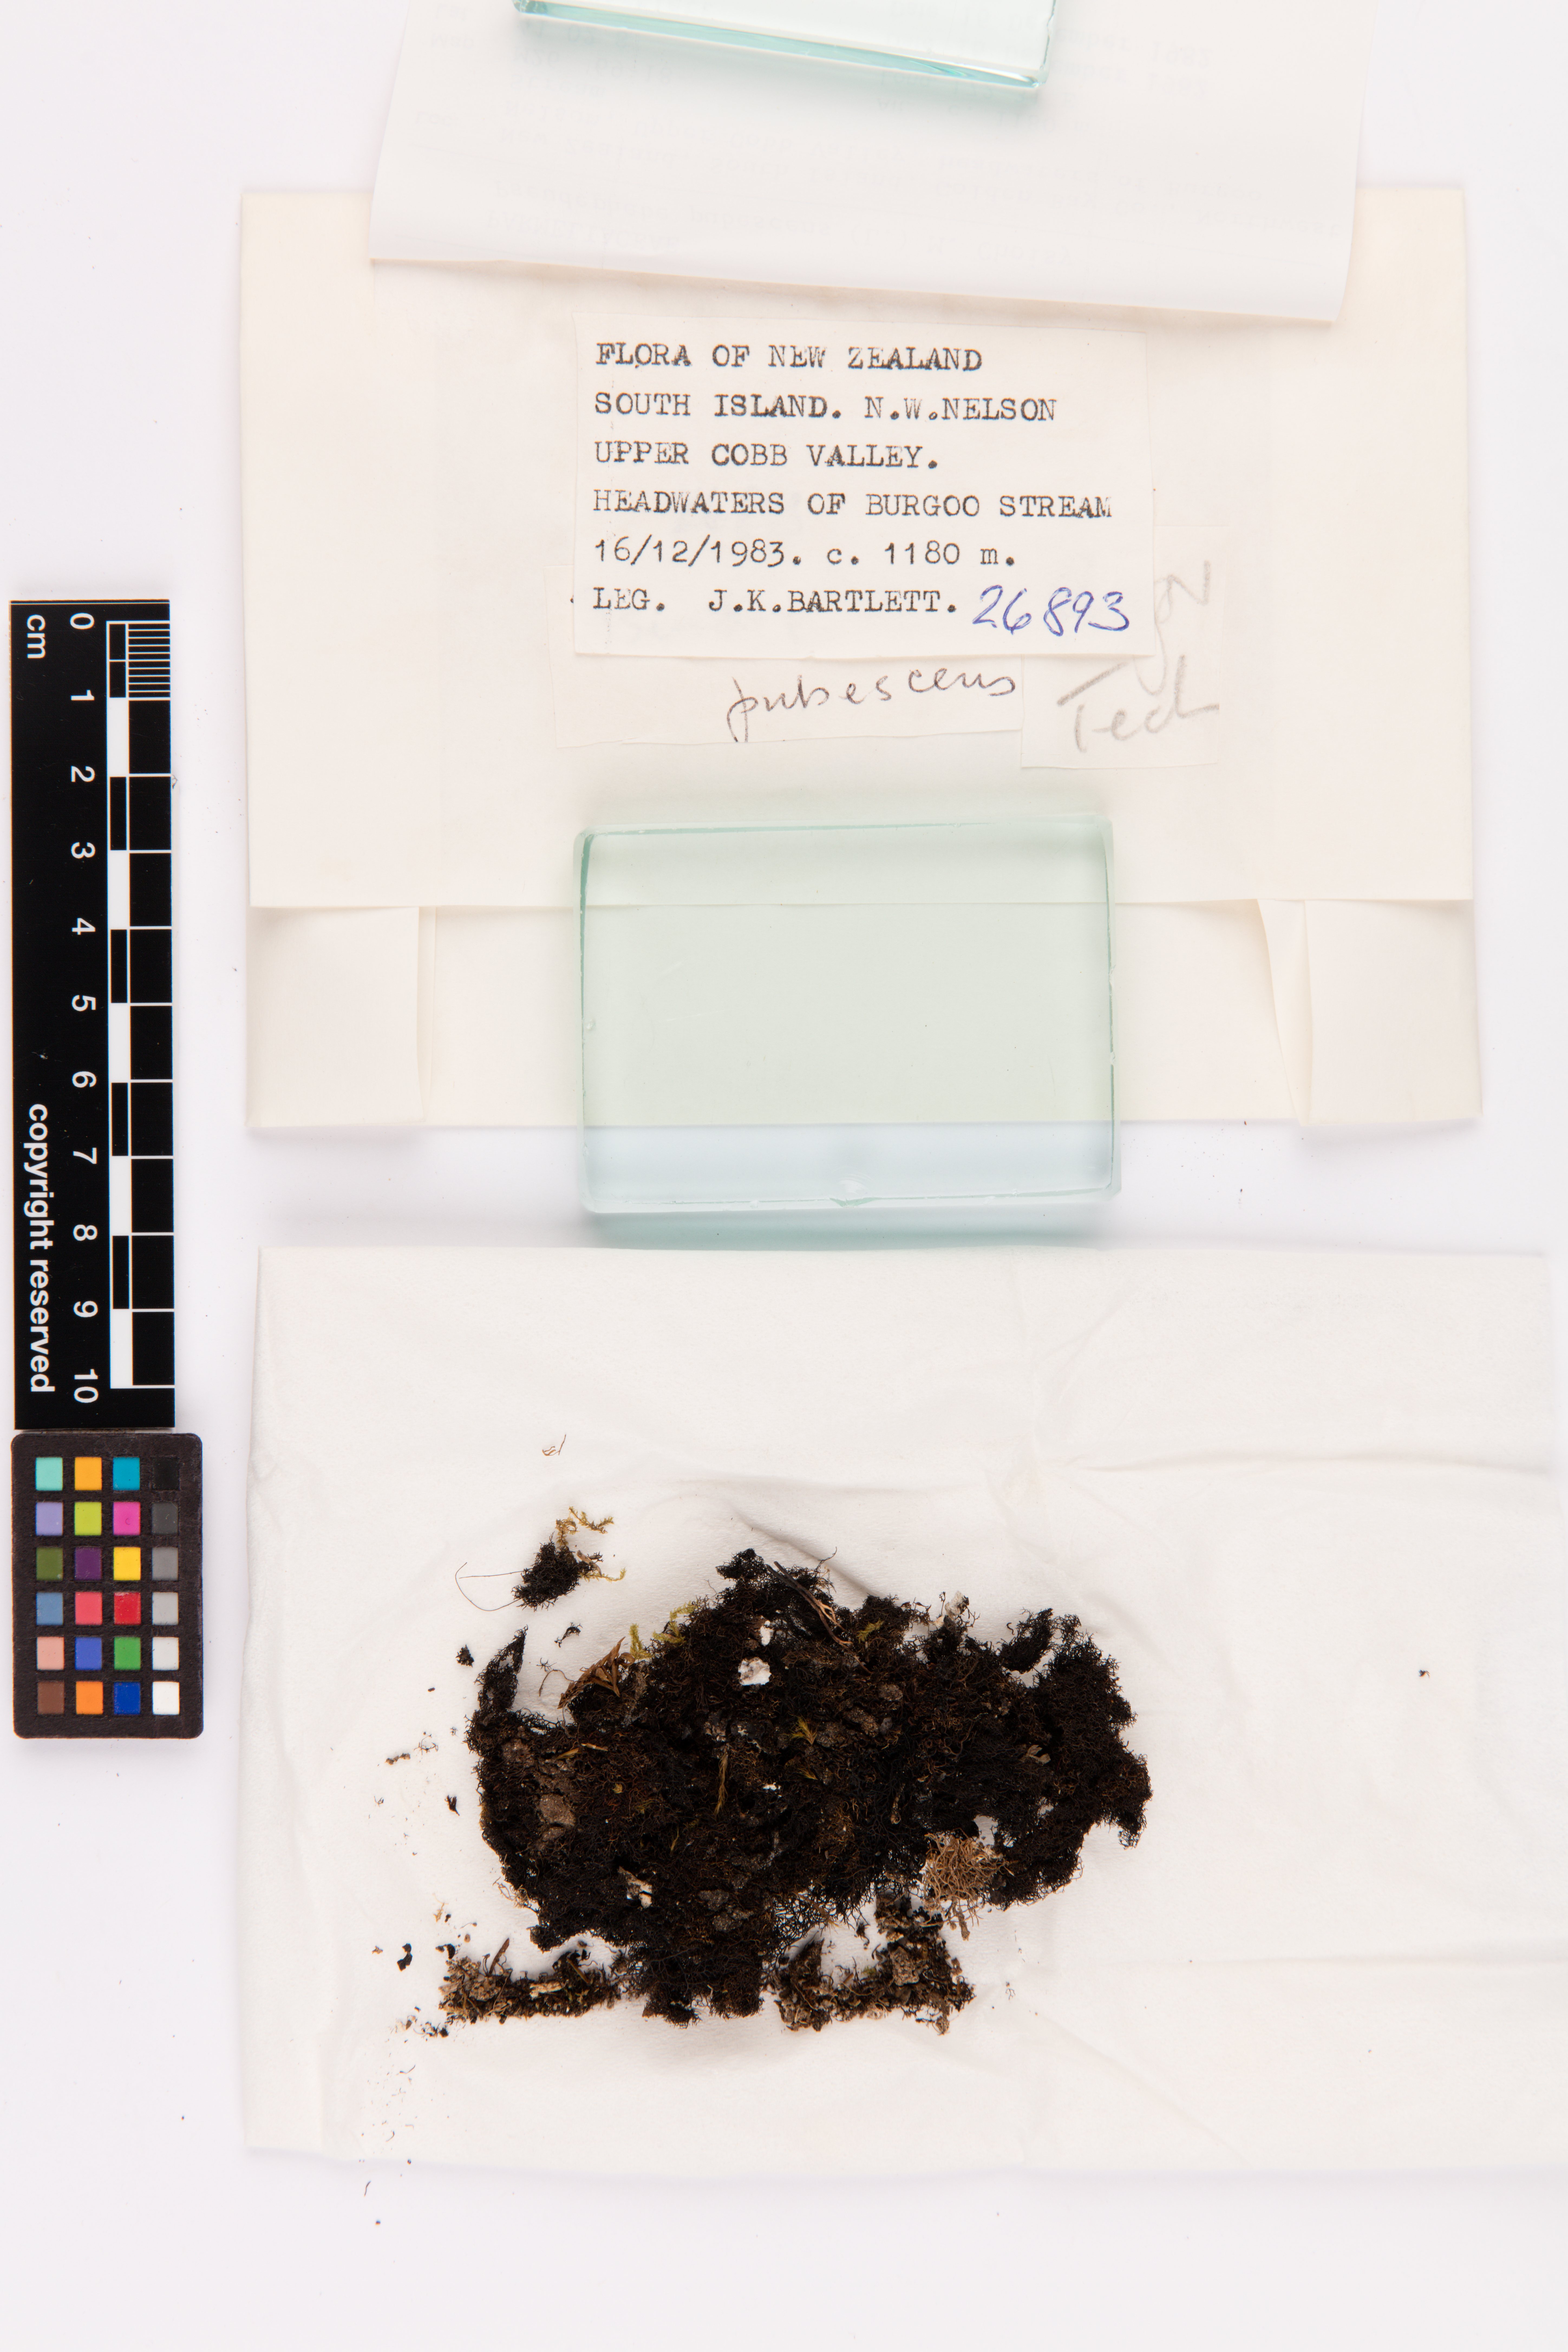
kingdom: Fungi
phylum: Ascomycota
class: Lecanoromycetes
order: Lecanorales
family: Parmeliaceae
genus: Pseudephebe
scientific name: Pseudephebe pubescens
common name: Fine rockwool lichen
